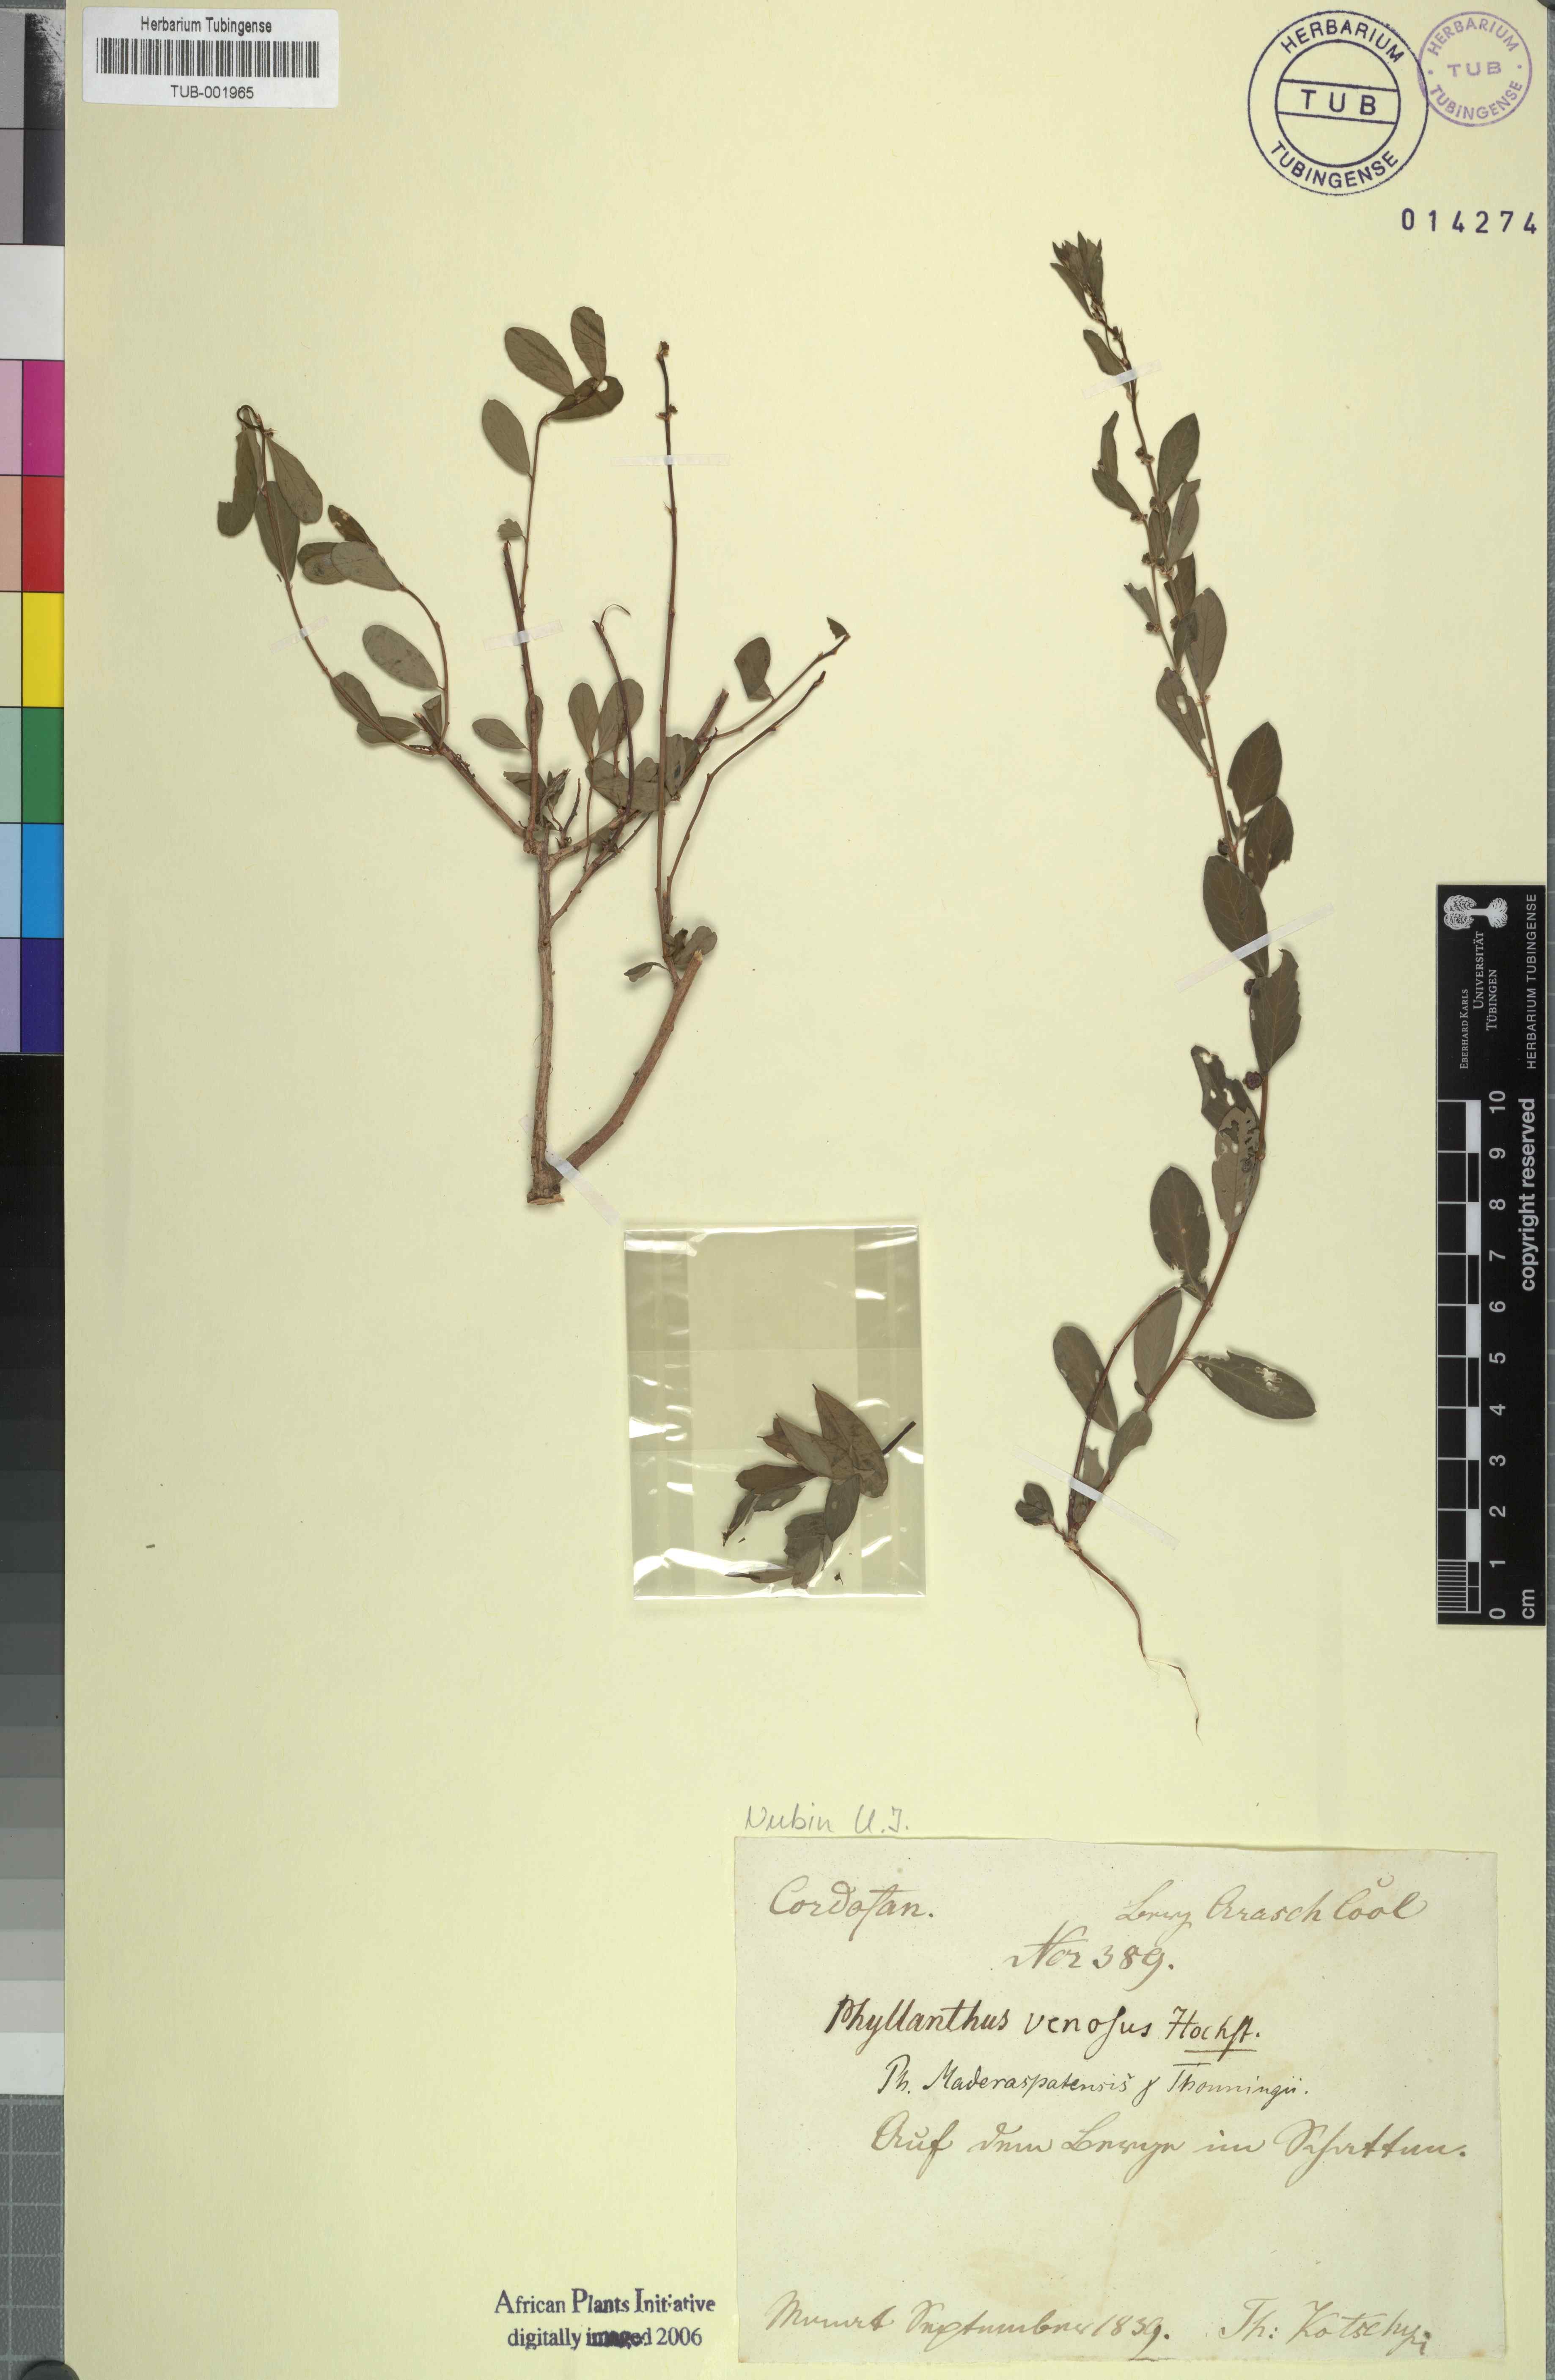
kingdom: Plantae
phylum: Tracheophyta
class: Magnoliopsida
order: Malpighiales
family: Phyllanthaceae
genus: Phyllanthus
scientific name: Phyllanthus maderaspatensis
